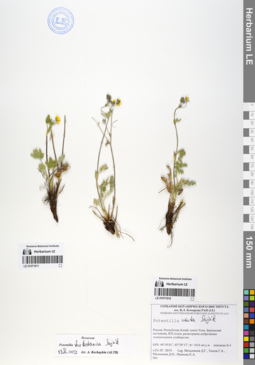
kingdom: Plantae
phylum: Tracheophyta
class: Magnoliopsida
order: Rosales
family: Rosaceae
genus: Potentilla
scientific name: Potentilla exuta
